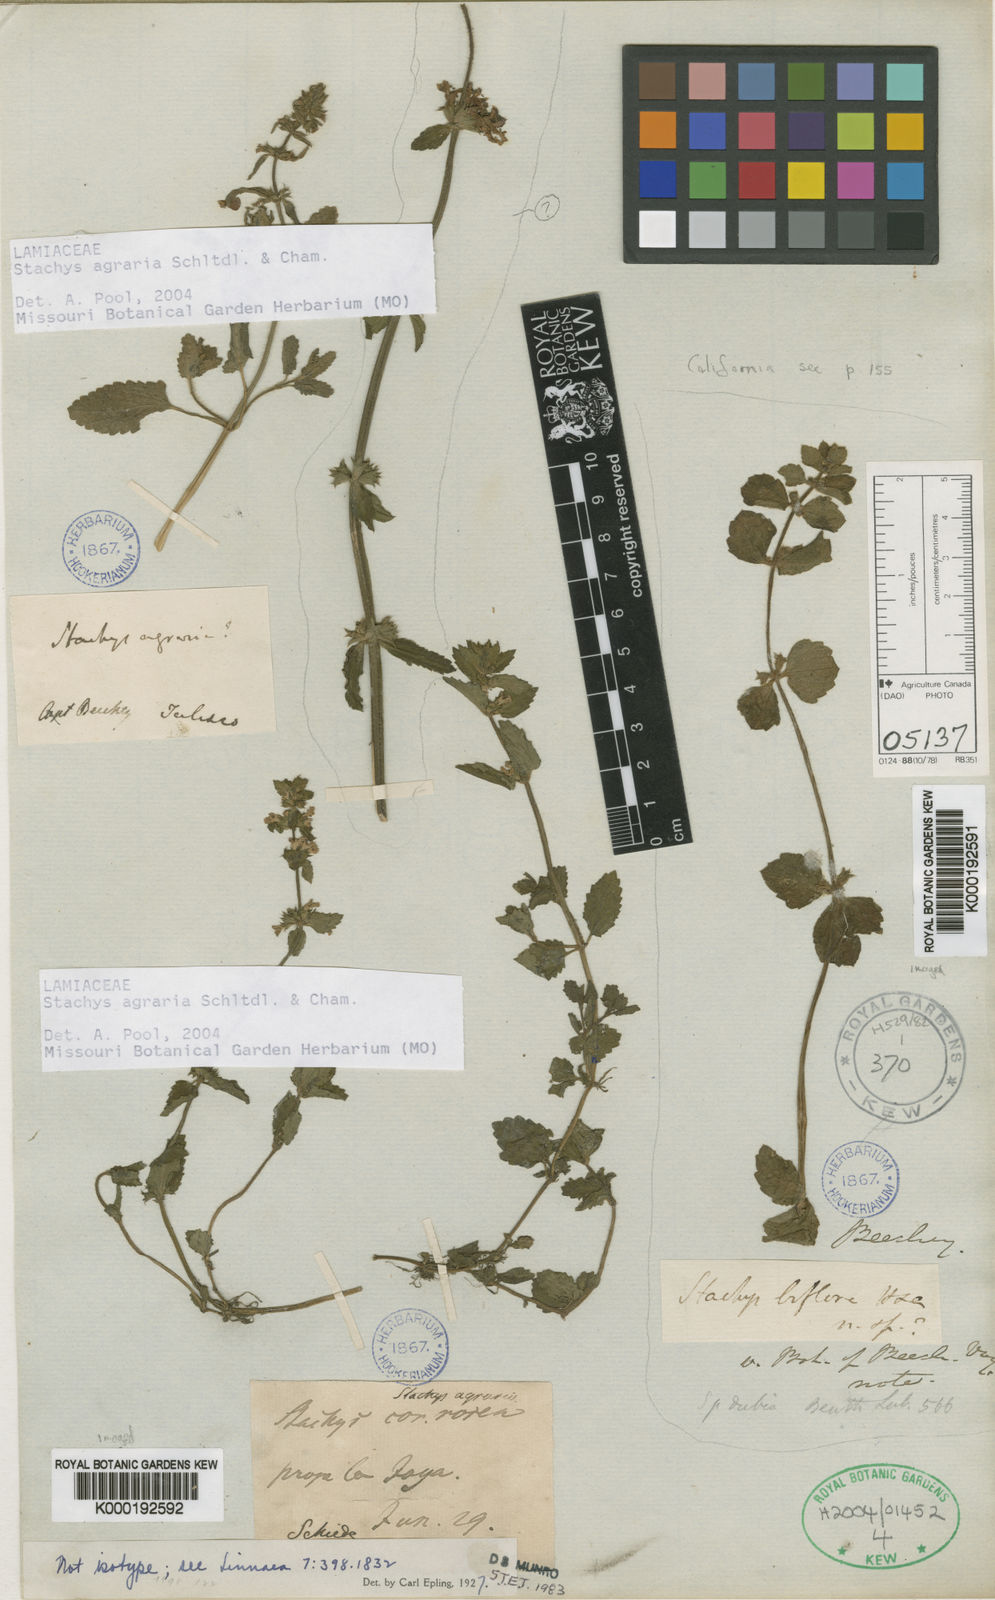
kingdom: Plantae
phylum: Tracheophyta
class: Magnoliopsida
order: Lamiales
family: Lamiaceae
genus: Stachys
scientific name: Stachys agraria
